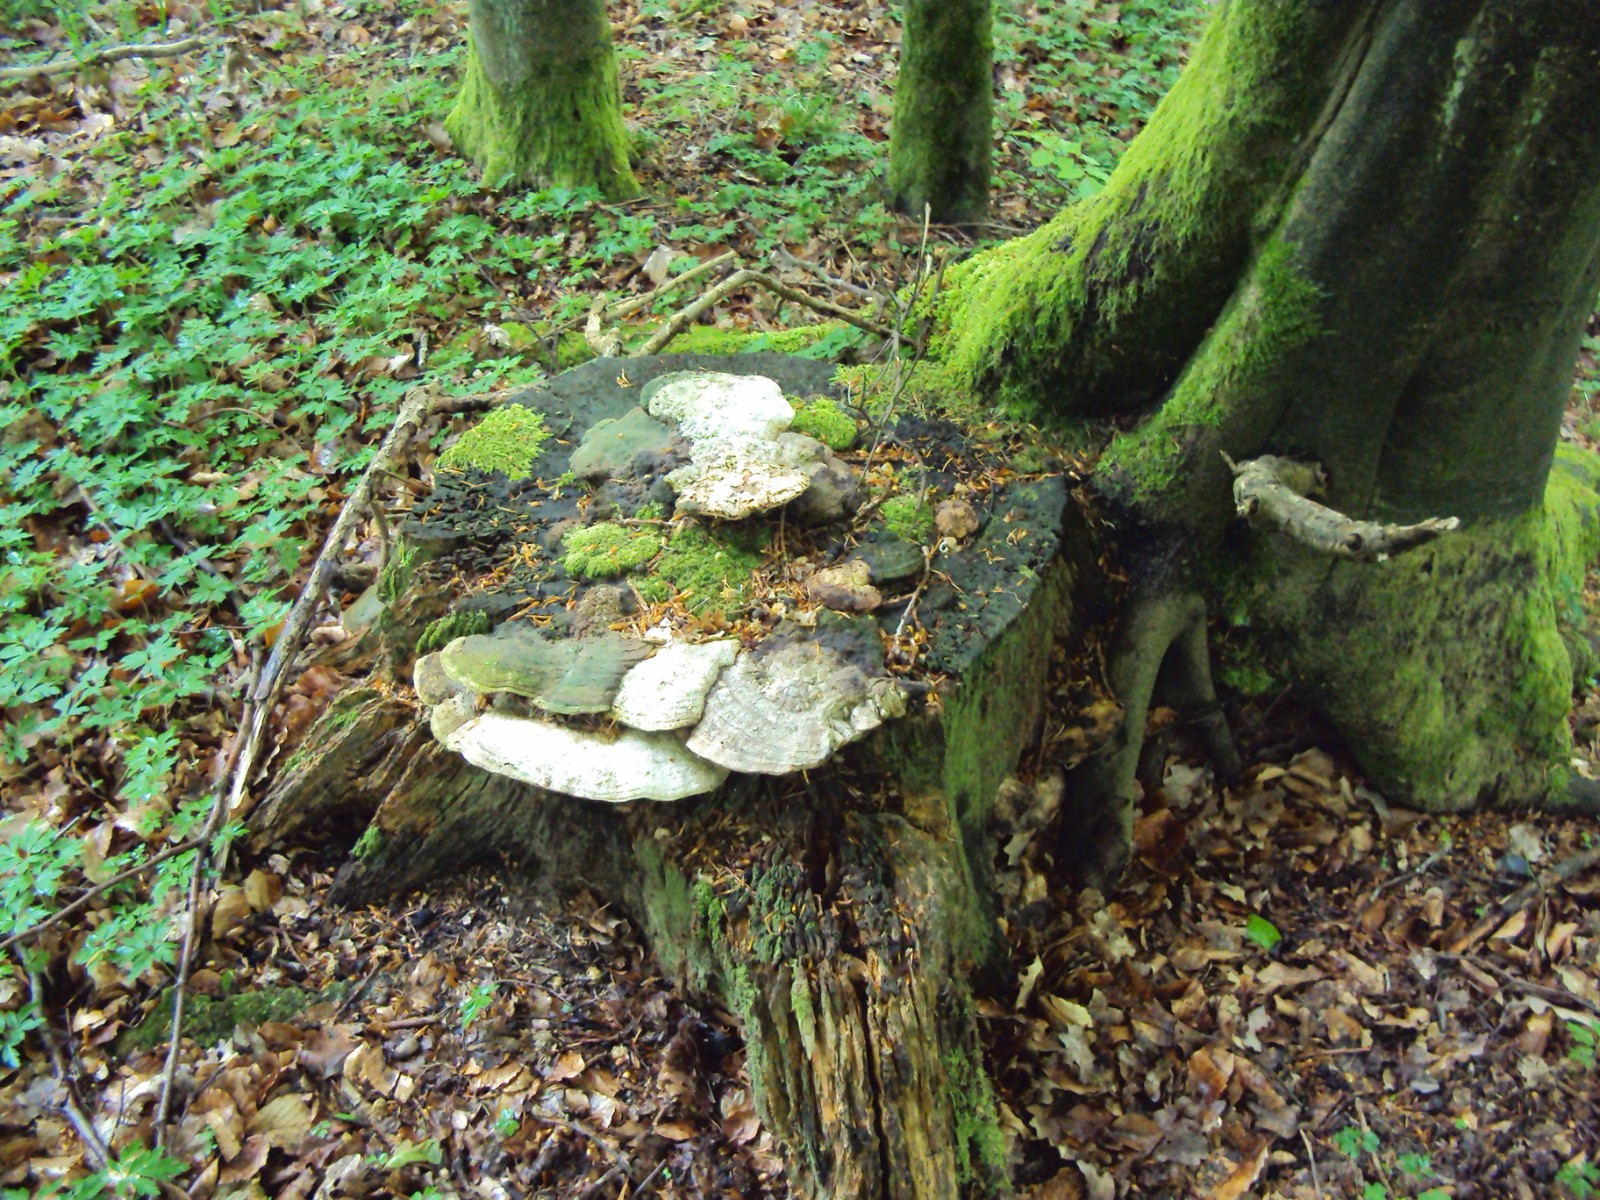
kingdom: Fungi
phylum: Basidiomycota
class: Agaricomycetes
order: Polyporales
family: Fomitopsidaceae
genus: Daedalea
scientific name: Daedalea quercina
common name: ege-labyrintsvamp
